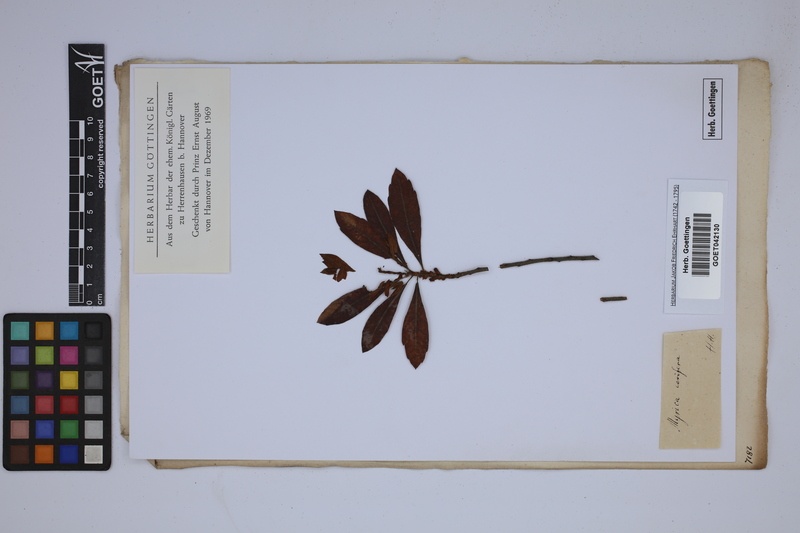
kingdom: Plantae
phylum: Tracheophyta
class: Magnoliopsida
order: Fagales
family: Myricaceae
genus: Morella
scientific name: Morella cerifera
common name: Wax myrtle
